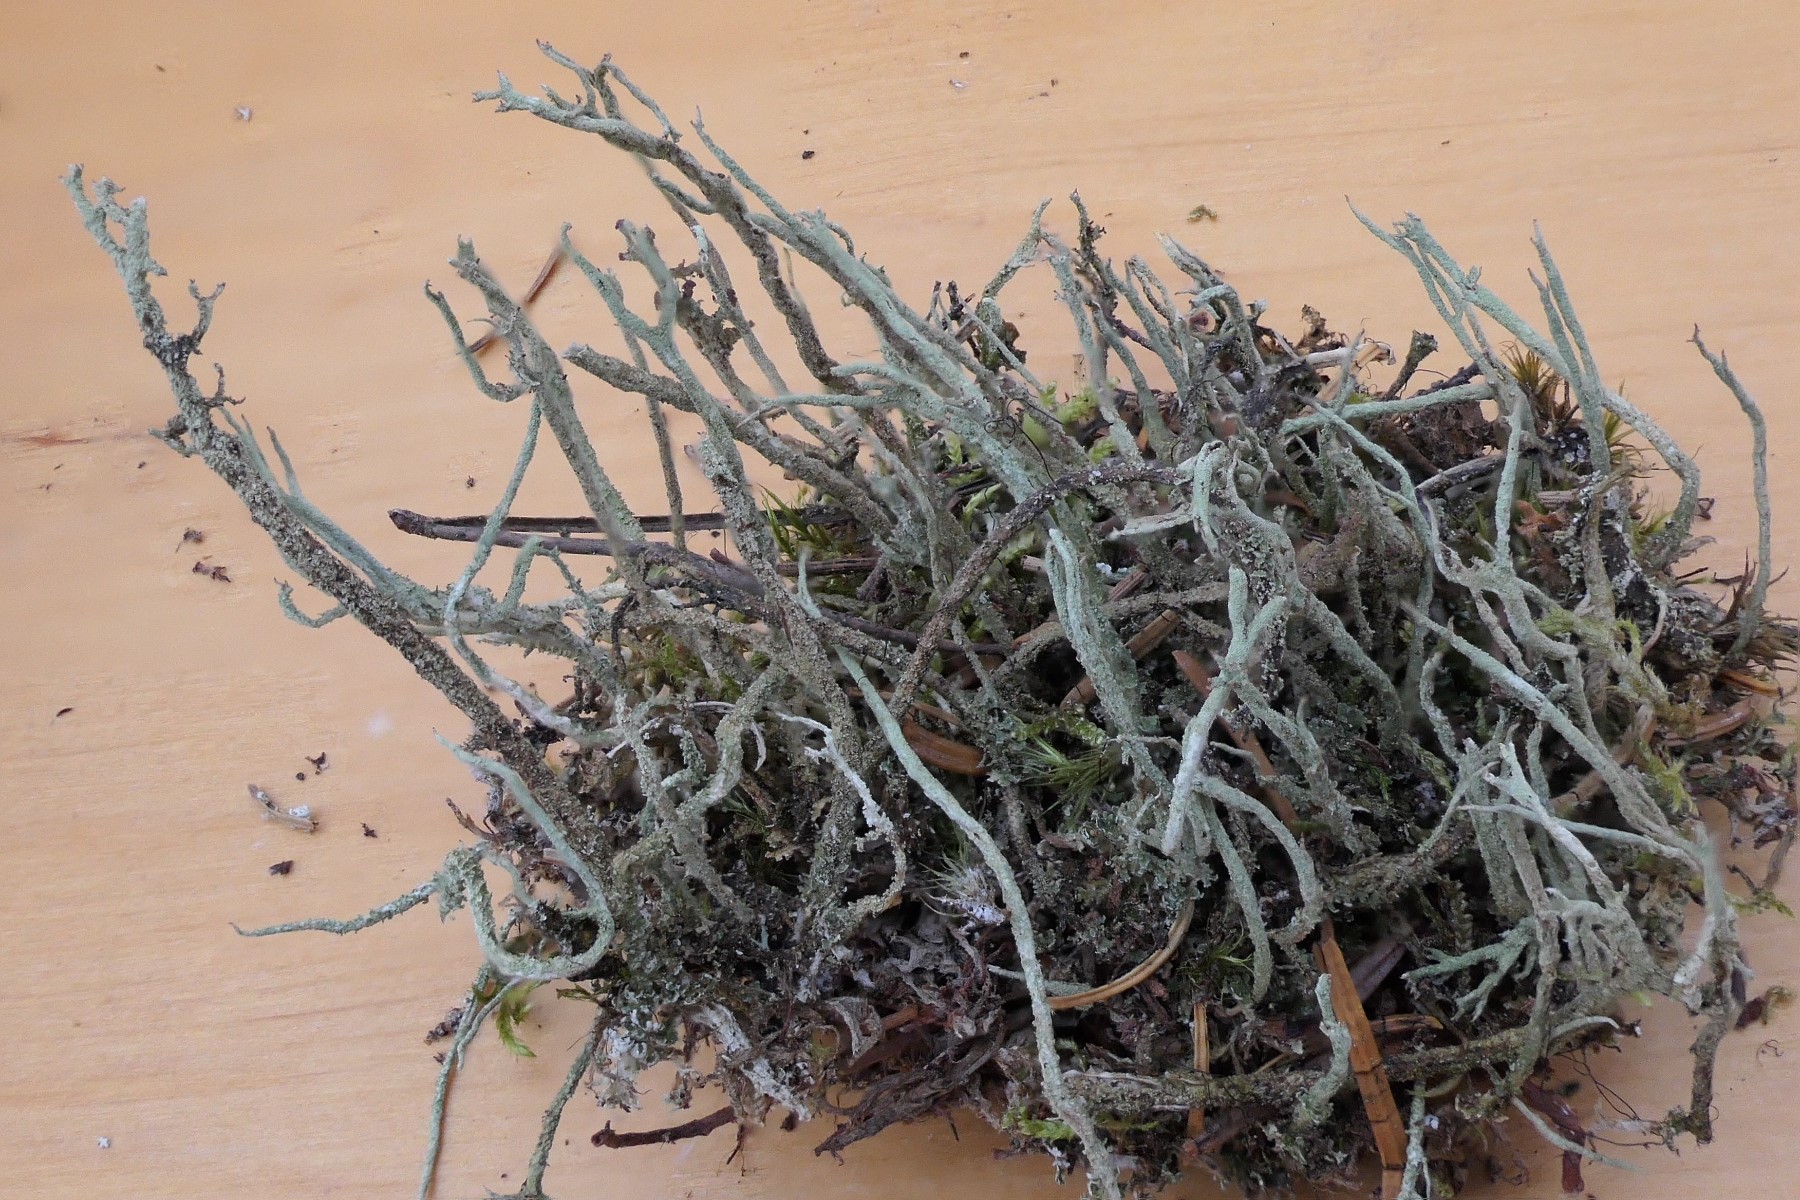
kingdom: Fungi
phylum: Ascomycota
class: Lecanoromycetes
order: Lecanorales
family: Cladoniaceae
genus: Cladonia
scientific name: Cladonia glauca
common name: grågrøn bægerlav
